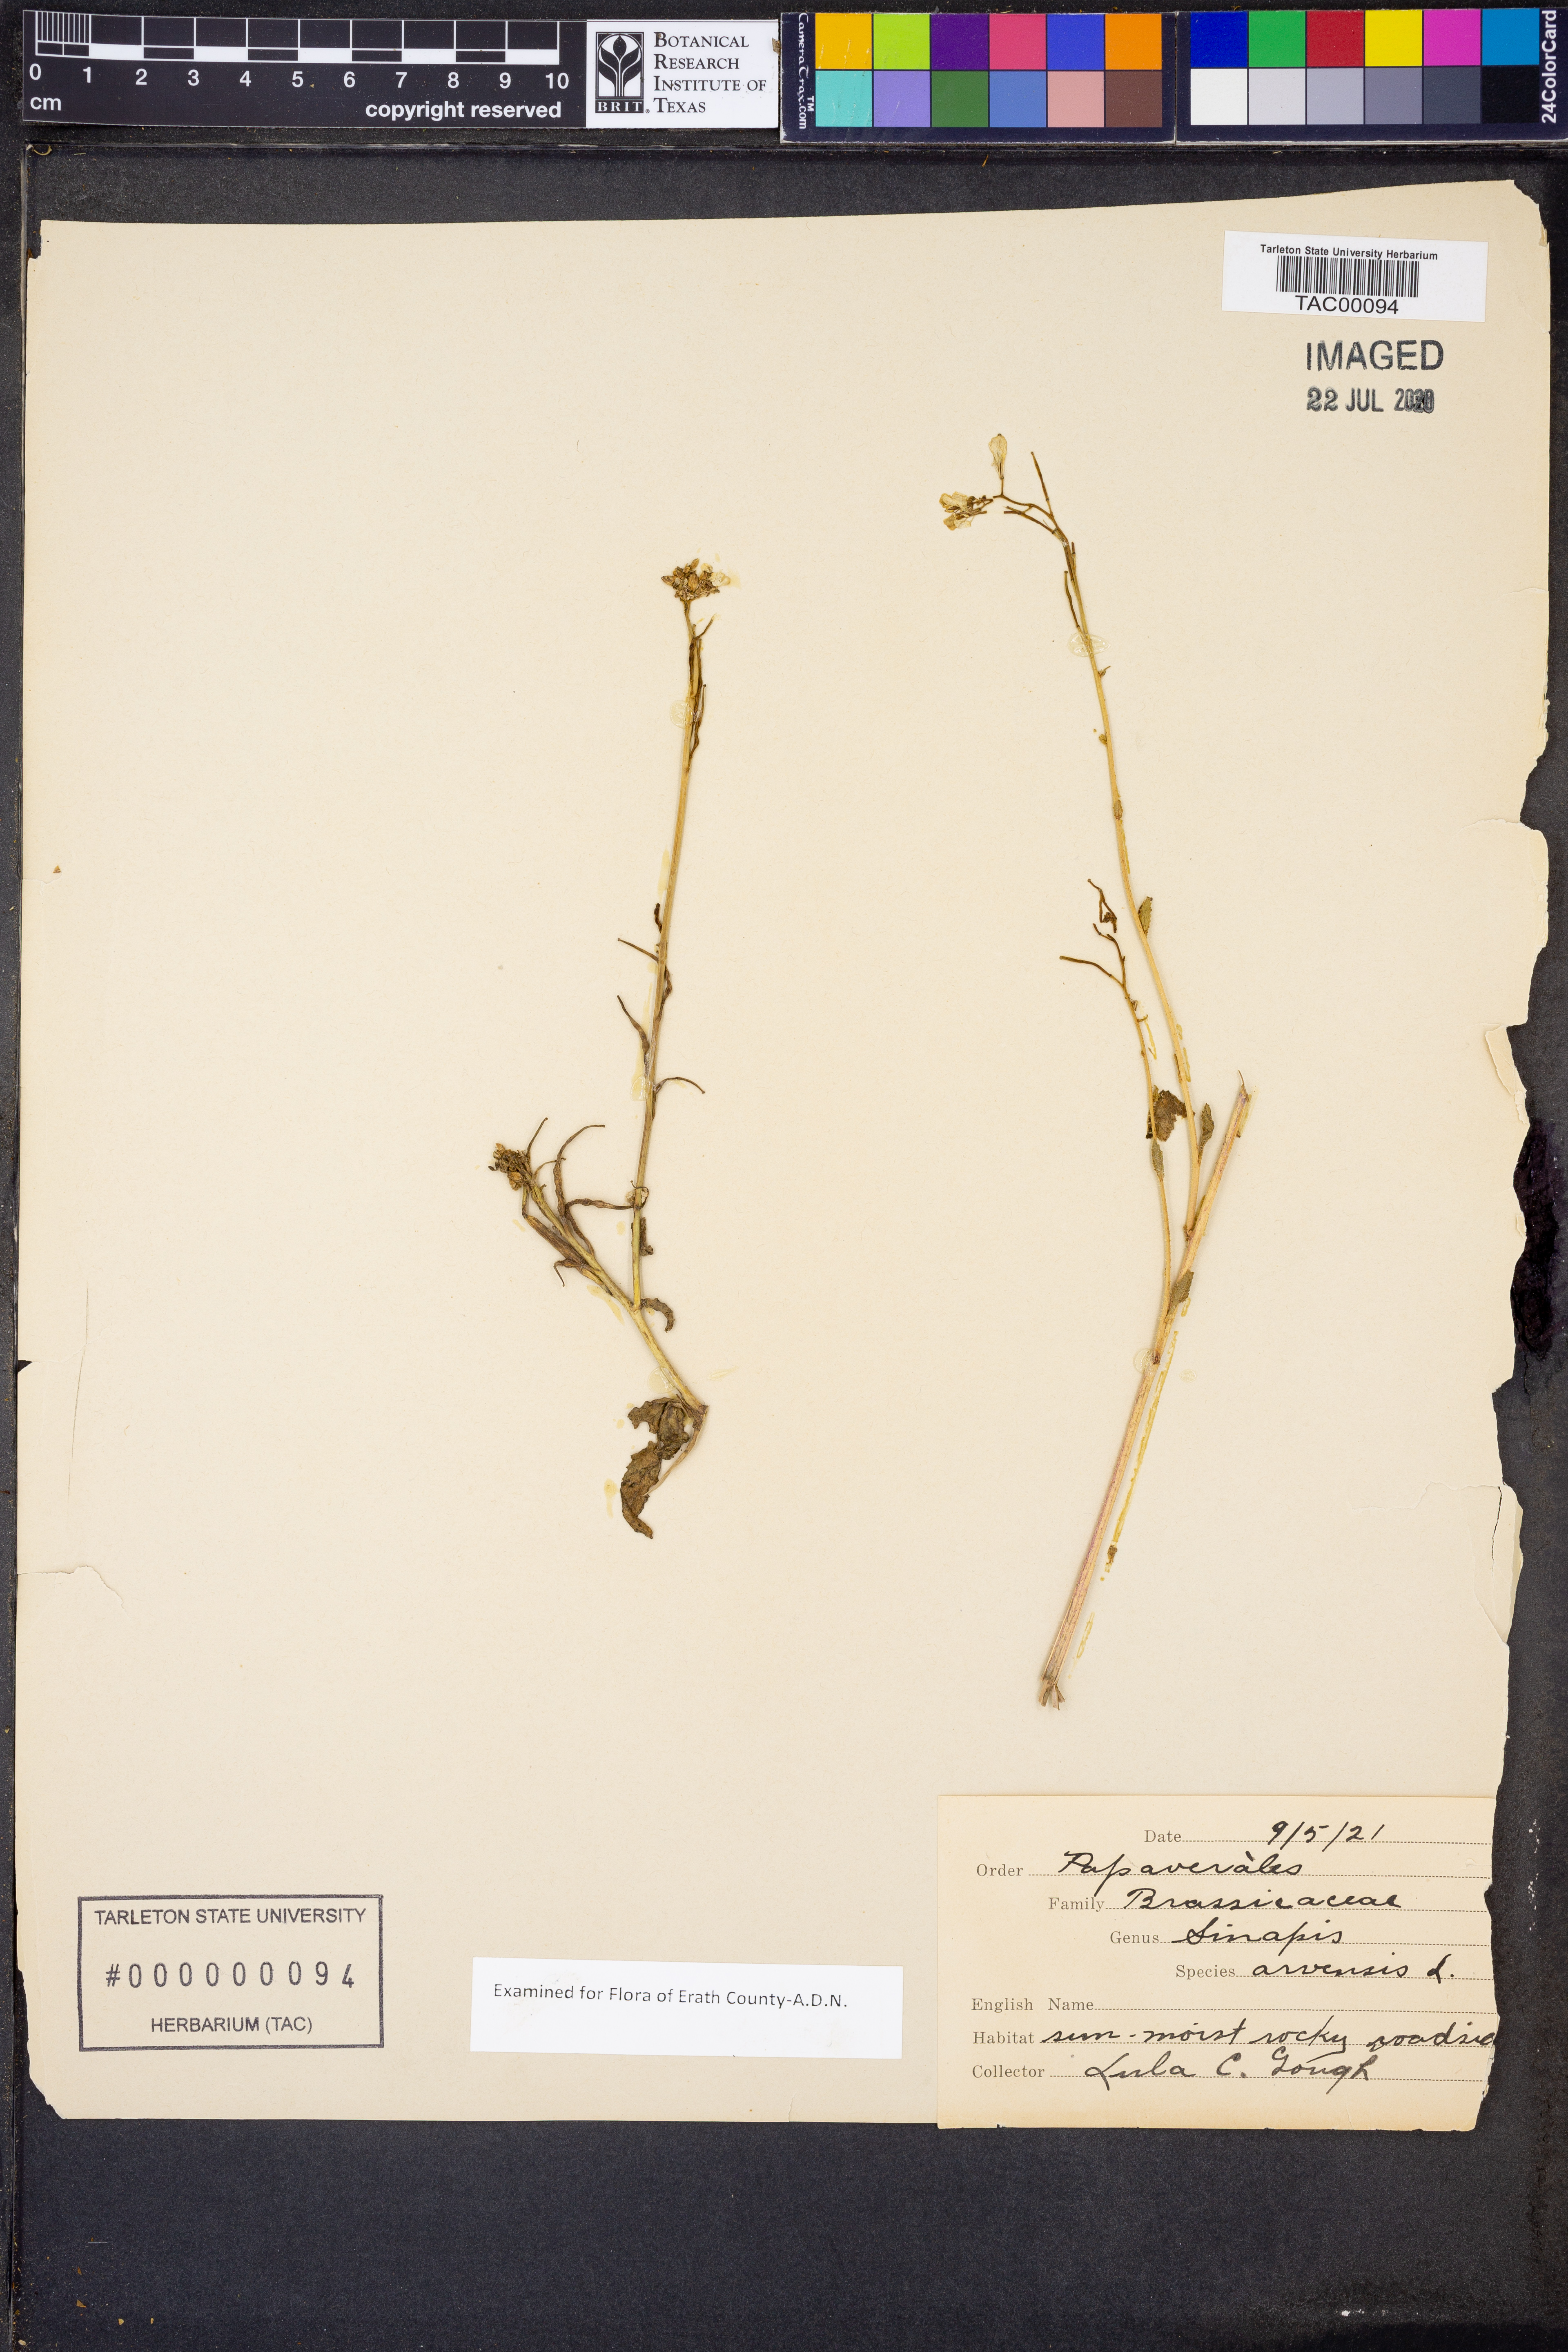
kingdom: Plantae
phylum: Tracheophyta
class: Magnoliopsida
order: Brassicales
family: Brassicaceae
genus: Sinapis
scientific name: Sinapis arvensis
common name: Charlock
